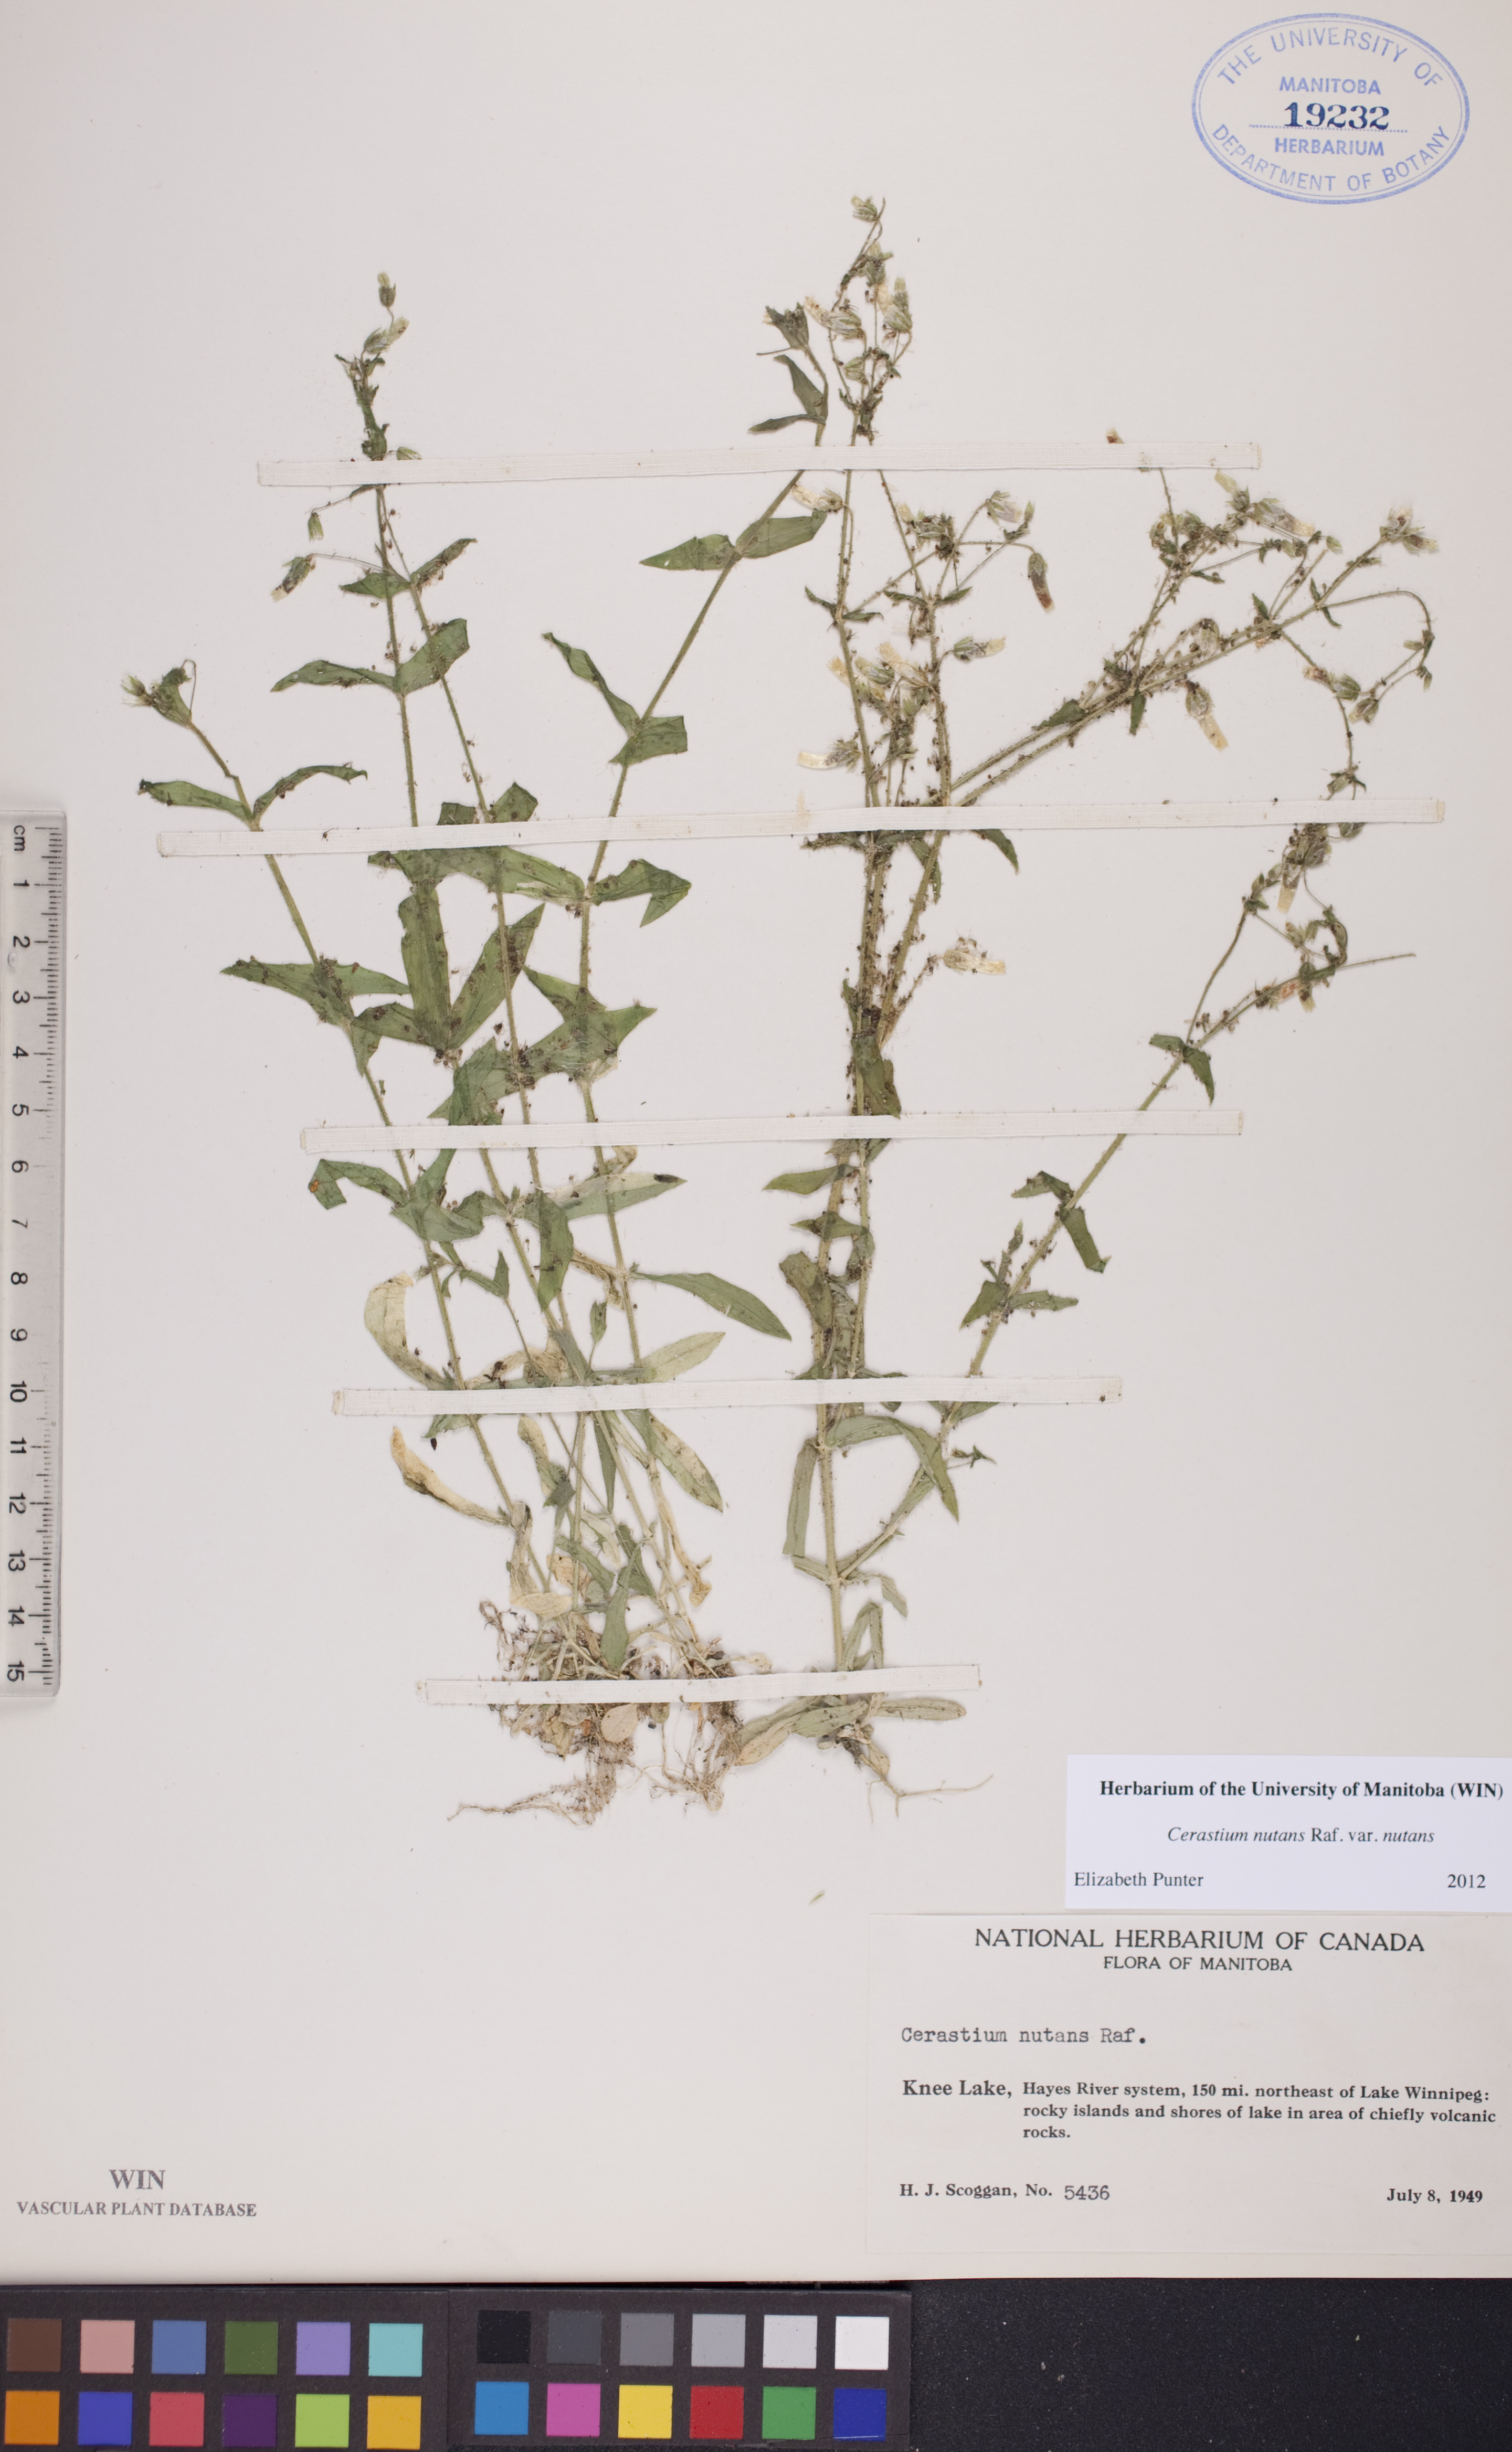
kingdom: Plantae
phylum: Tracheophyta
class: Magnoliopsida
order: Caryophyllales
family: Caryophyllaceae
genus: Cerastium
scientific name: Cerastium nutans
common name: Long-stalked chickweed
